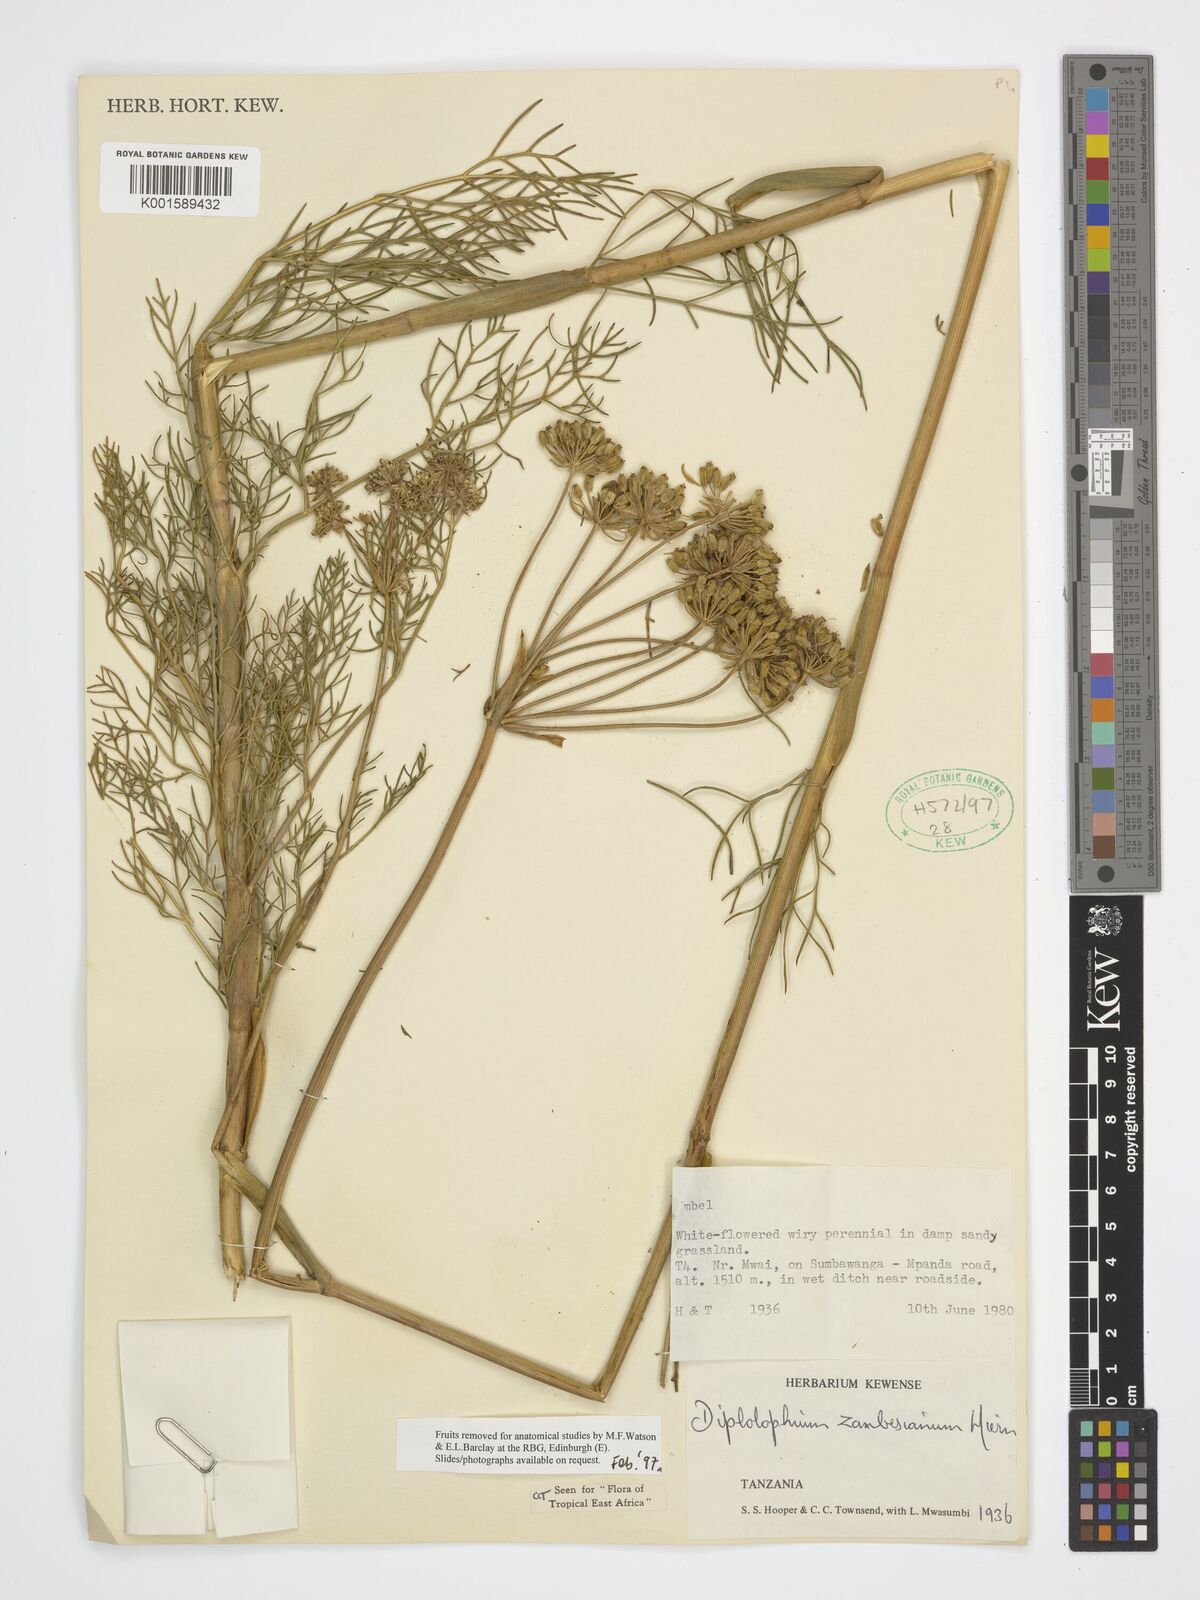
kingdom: Plantae
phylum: Tracheophyta
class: Magnoliopsida
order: Apiales
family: Apiaceae
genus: Diplolophium
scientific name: Diplolophium zambesianum
